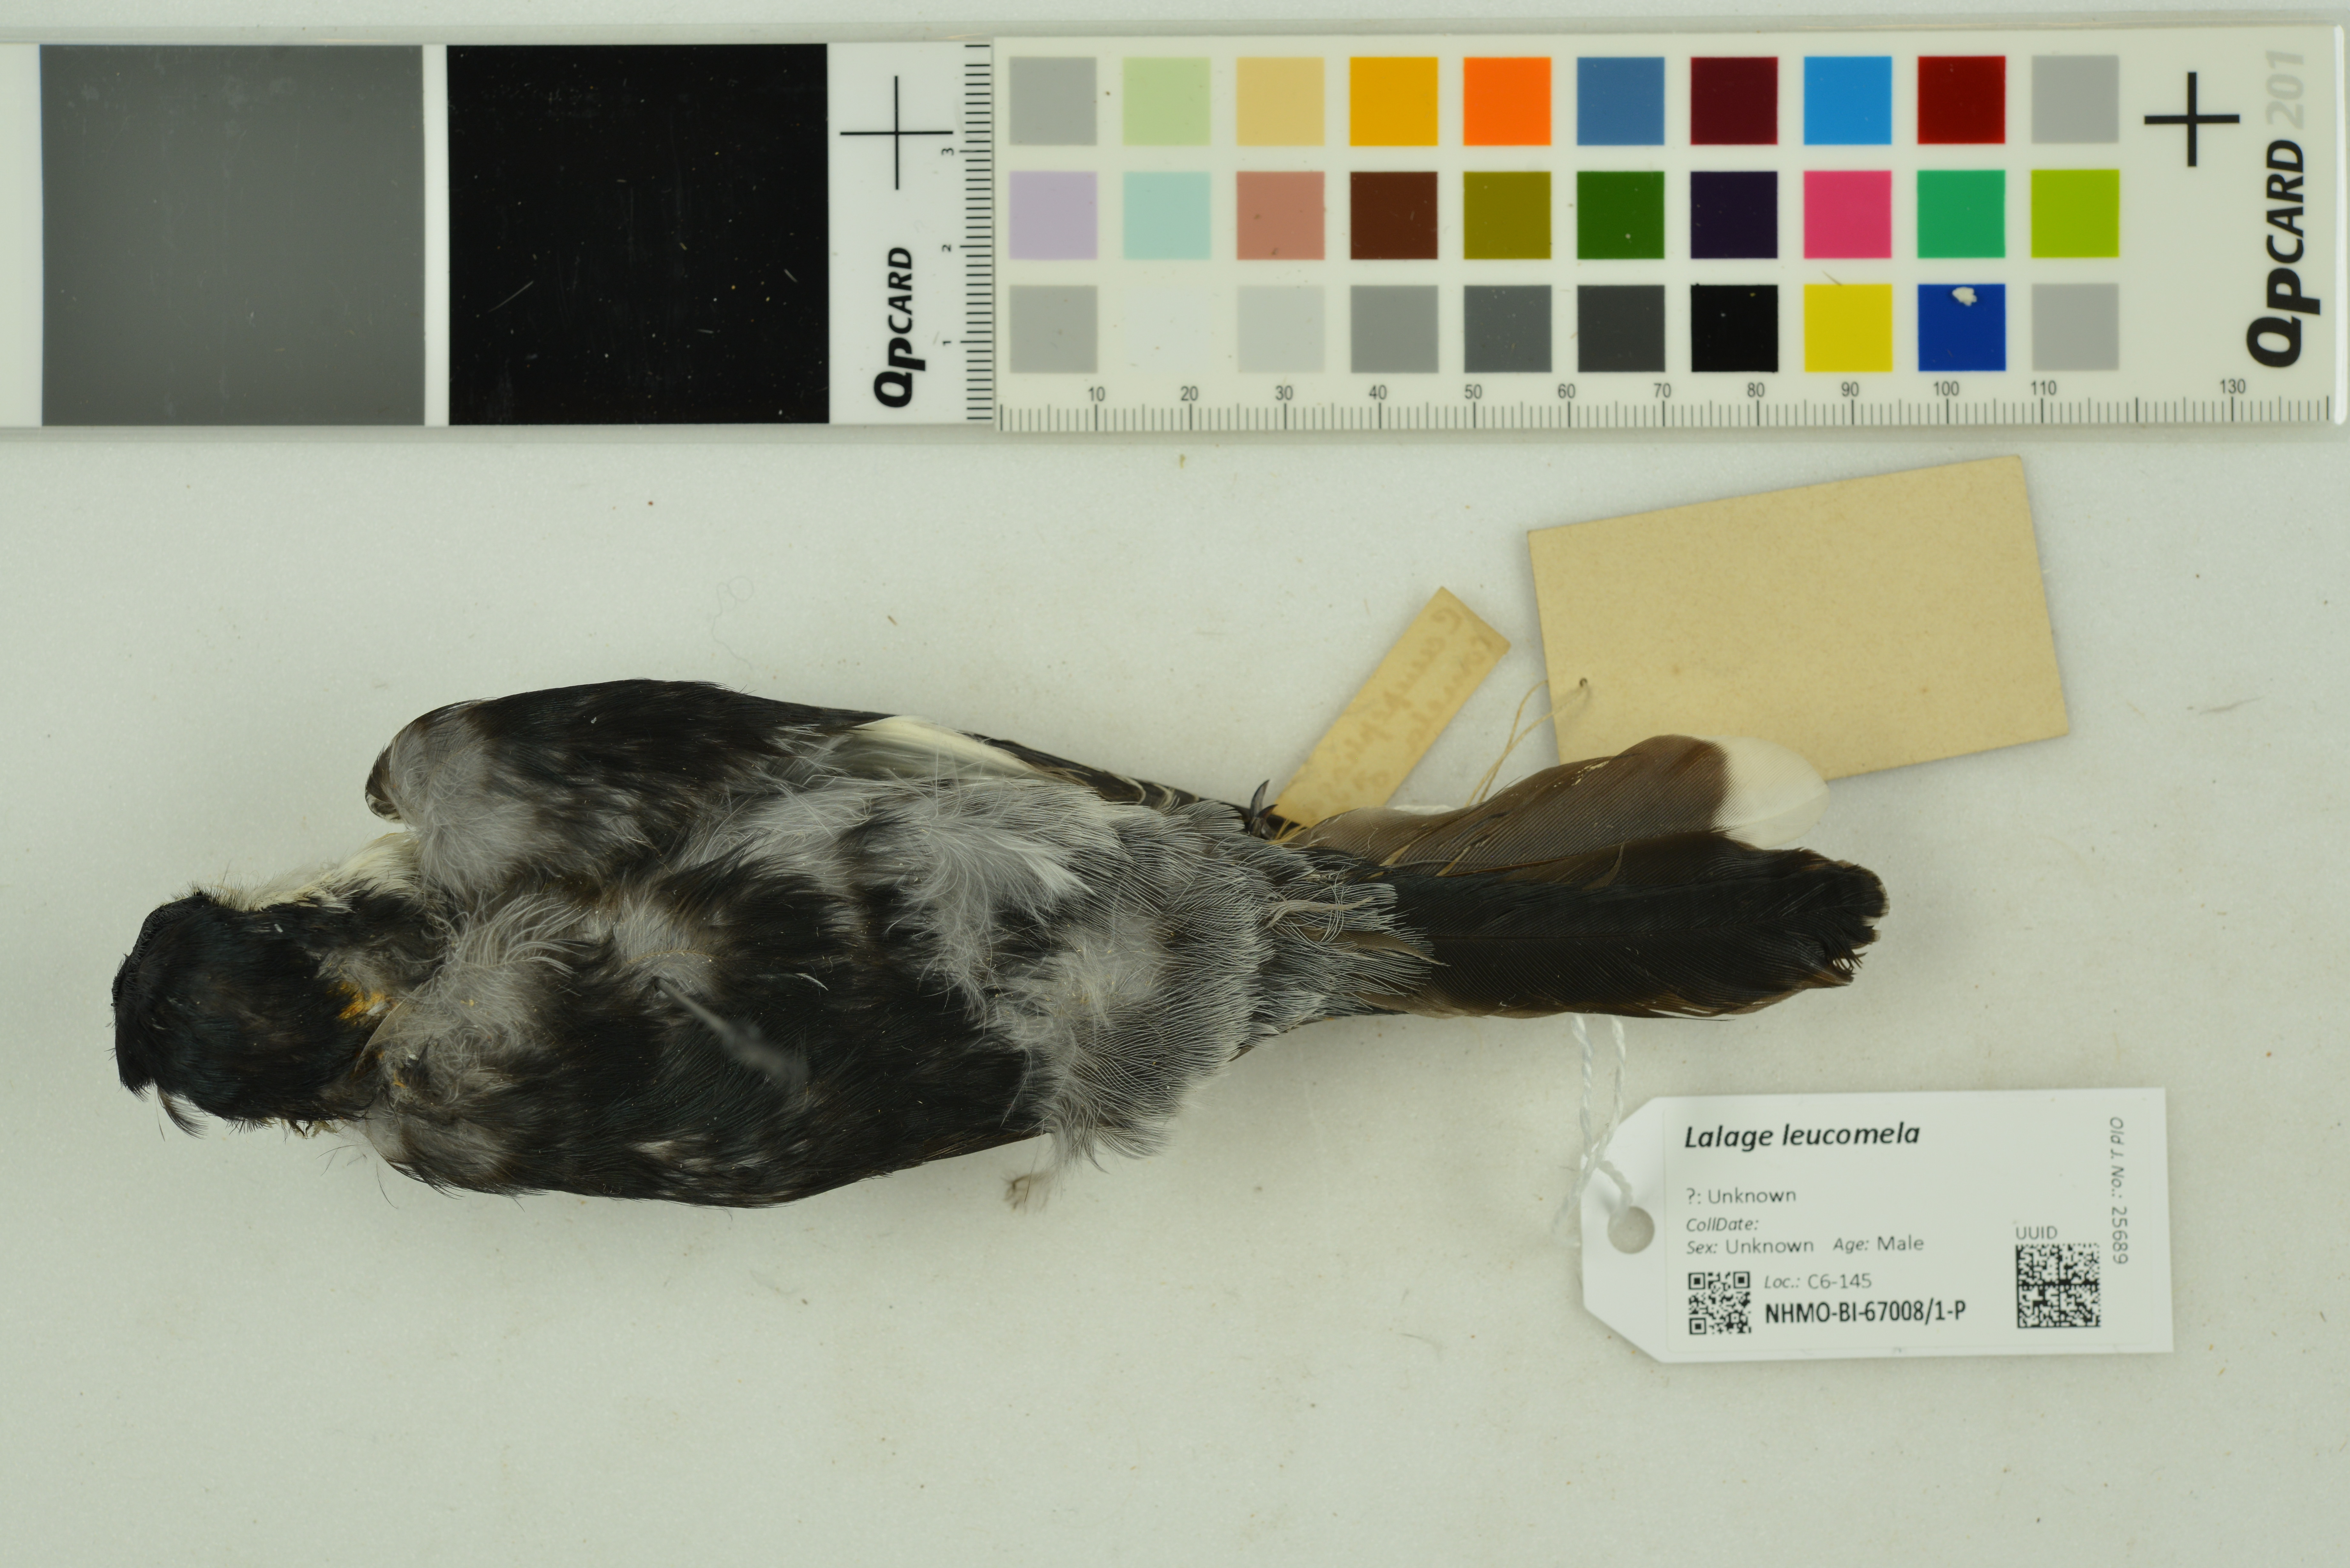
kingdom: Animalia
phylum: Chordata
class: Aves
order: Passeriformes
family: Campephagidae
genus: Lalage
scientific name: Lalage leucomela
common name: Varied triller
